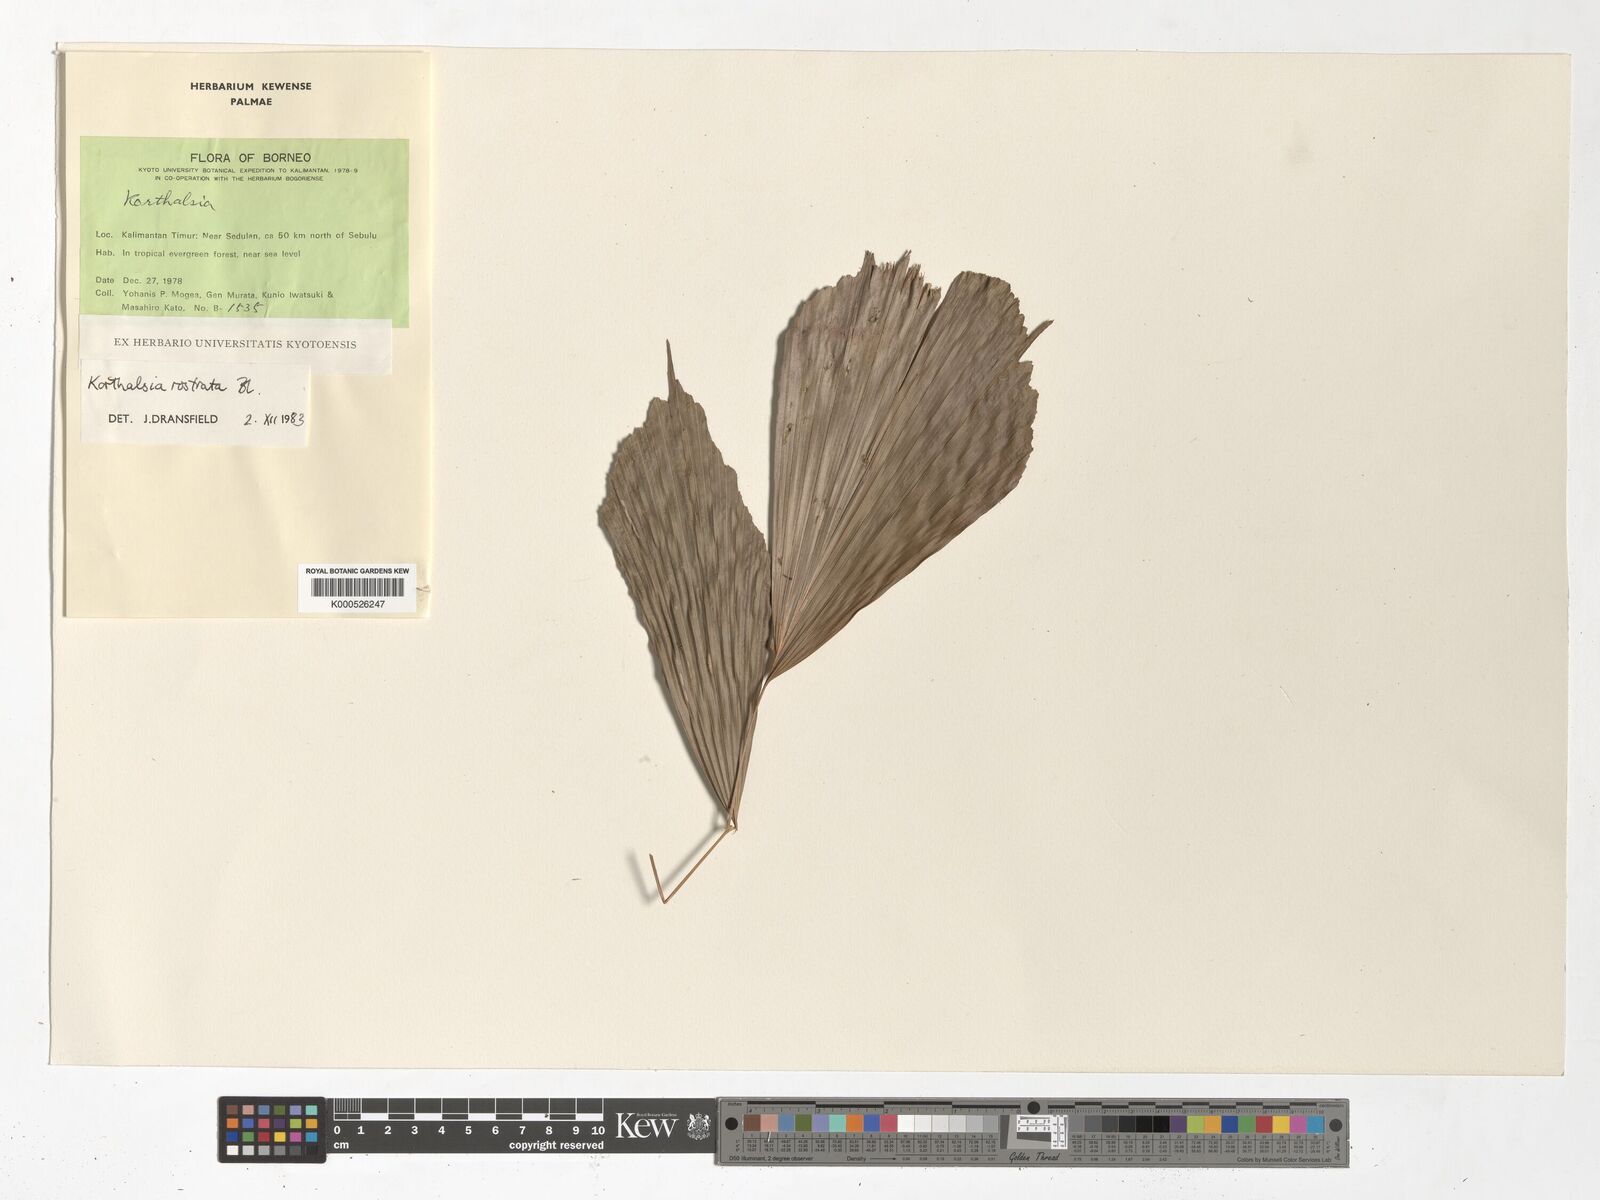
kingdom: Plantae
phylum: Tracheophyta
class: Liliopsida
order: Arecales
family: Arecaceae
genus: Korthalsia
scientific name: Korthalsia rostrata
